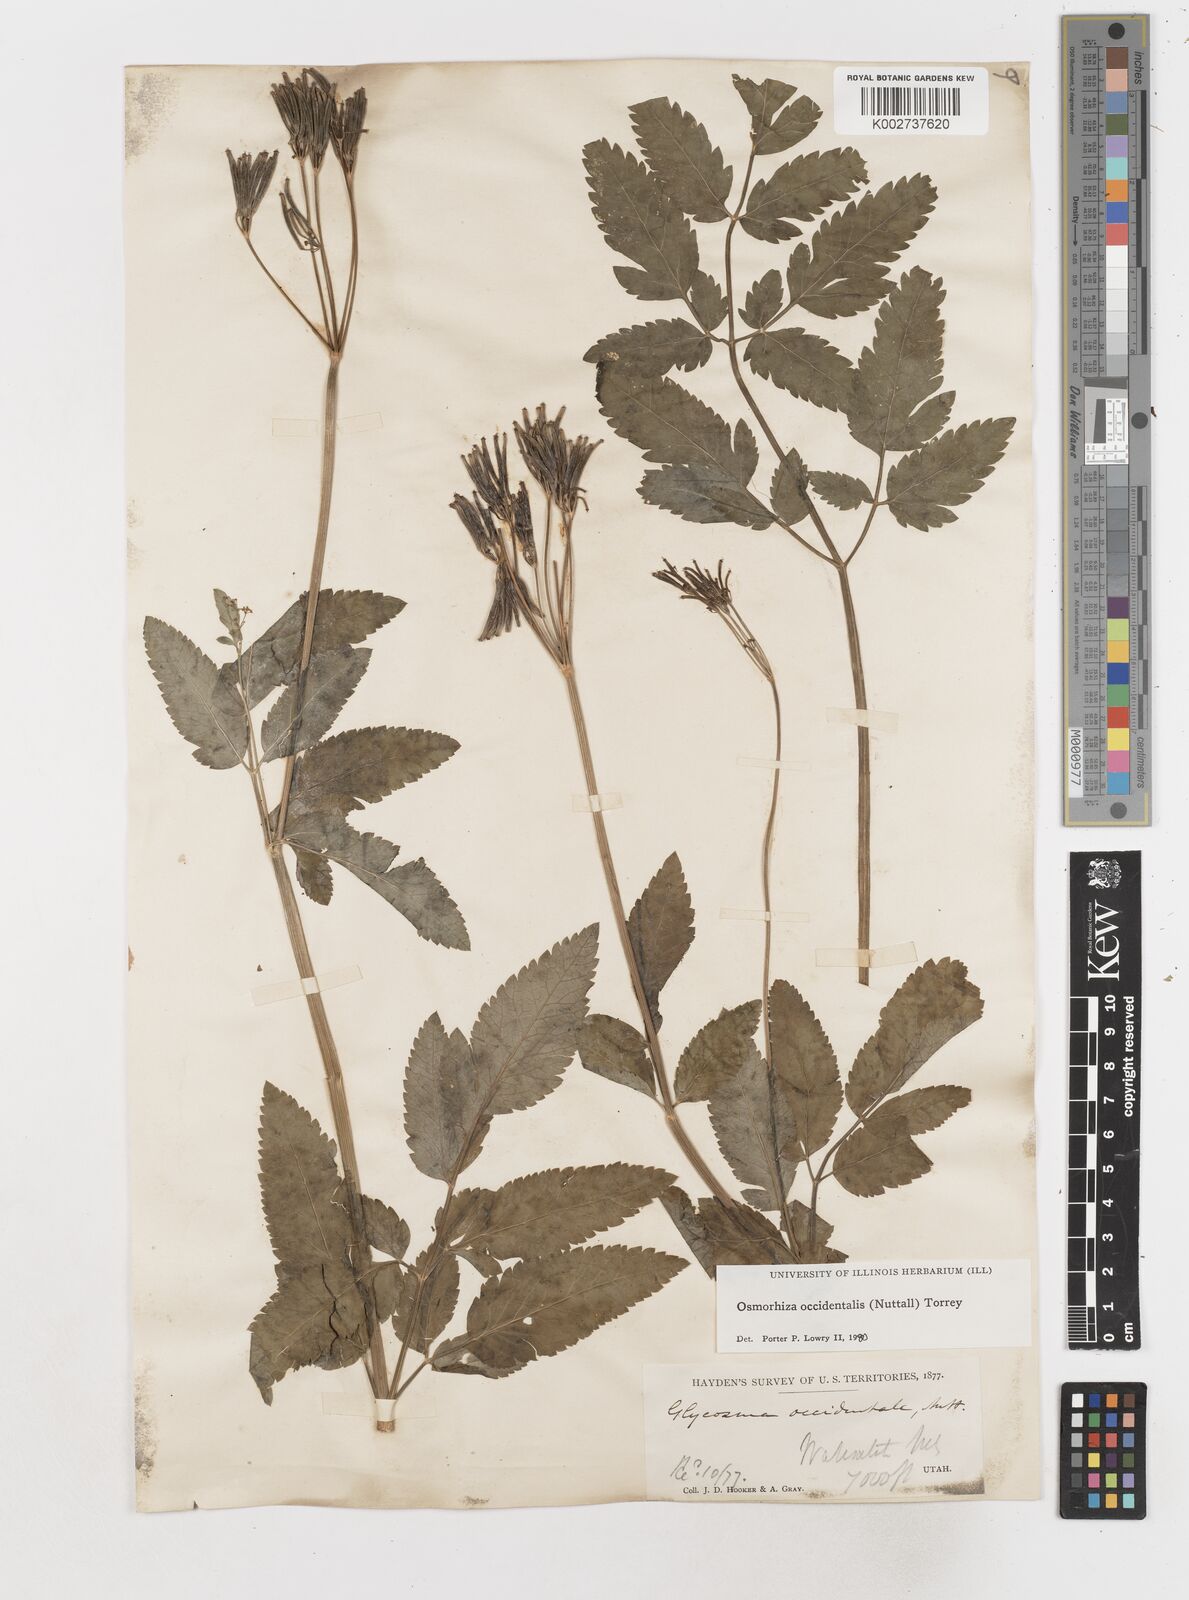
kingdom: Plantae
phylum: Tracheophyta
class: Magnoliopsida
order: Apiales
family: Apiaceae
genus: Osmorhiza
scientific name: Osmorhiza occidentalis
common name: Western sweet cicely
